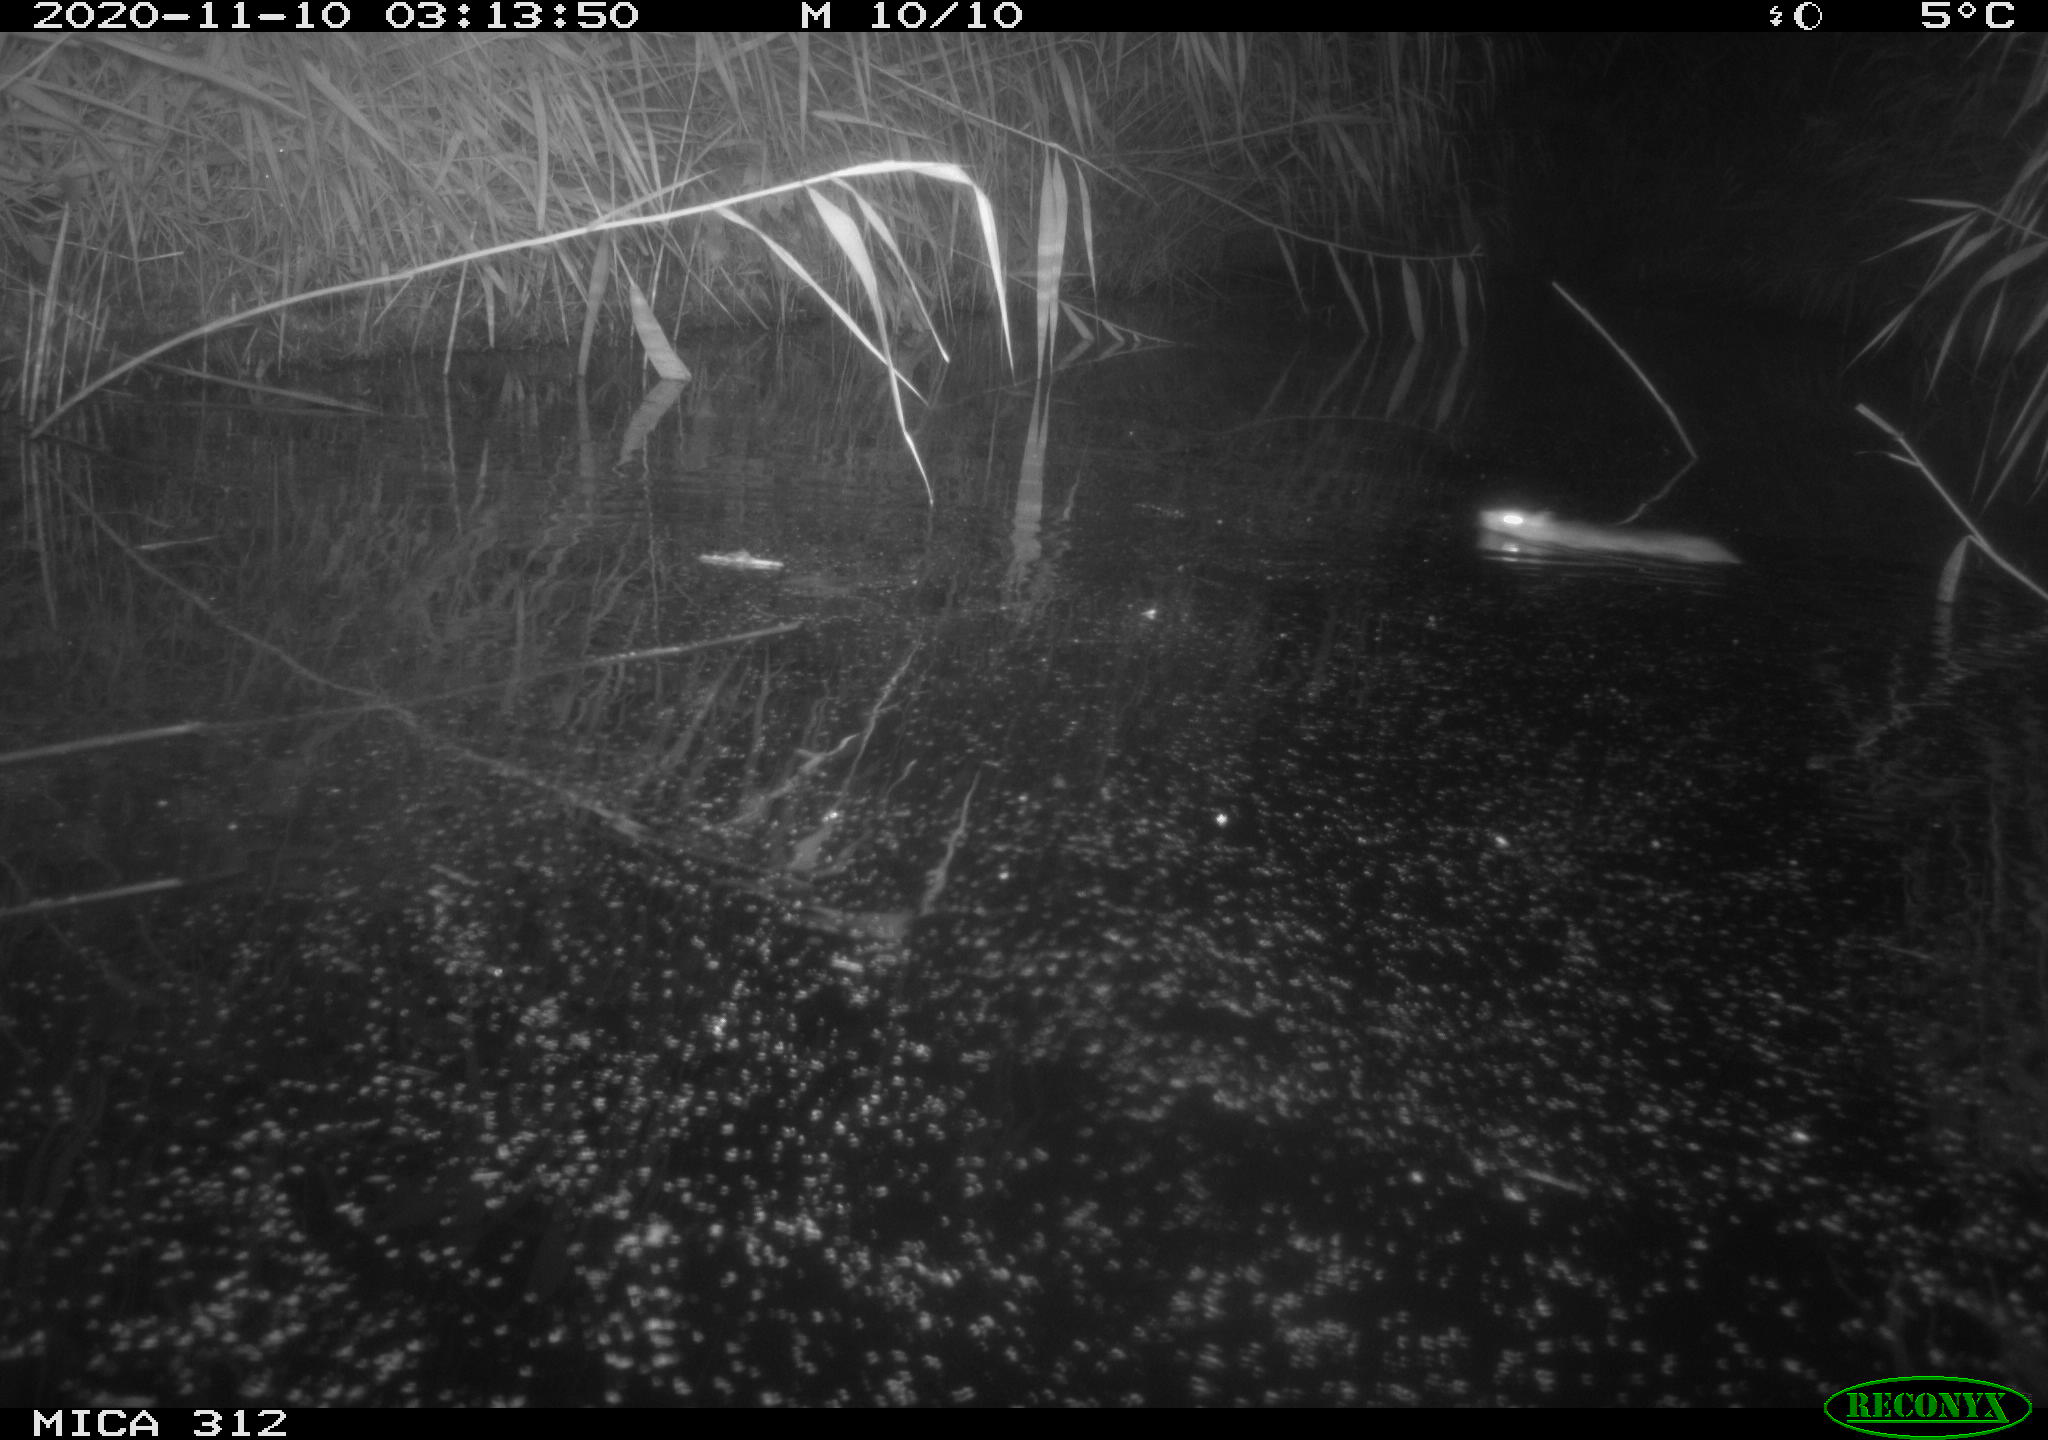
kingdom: Animalia
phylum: Chordata
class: Mammalia
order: Rodentia
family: Muridae
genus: Rattus
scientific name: Rattus norvegicus
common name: Brown rat
